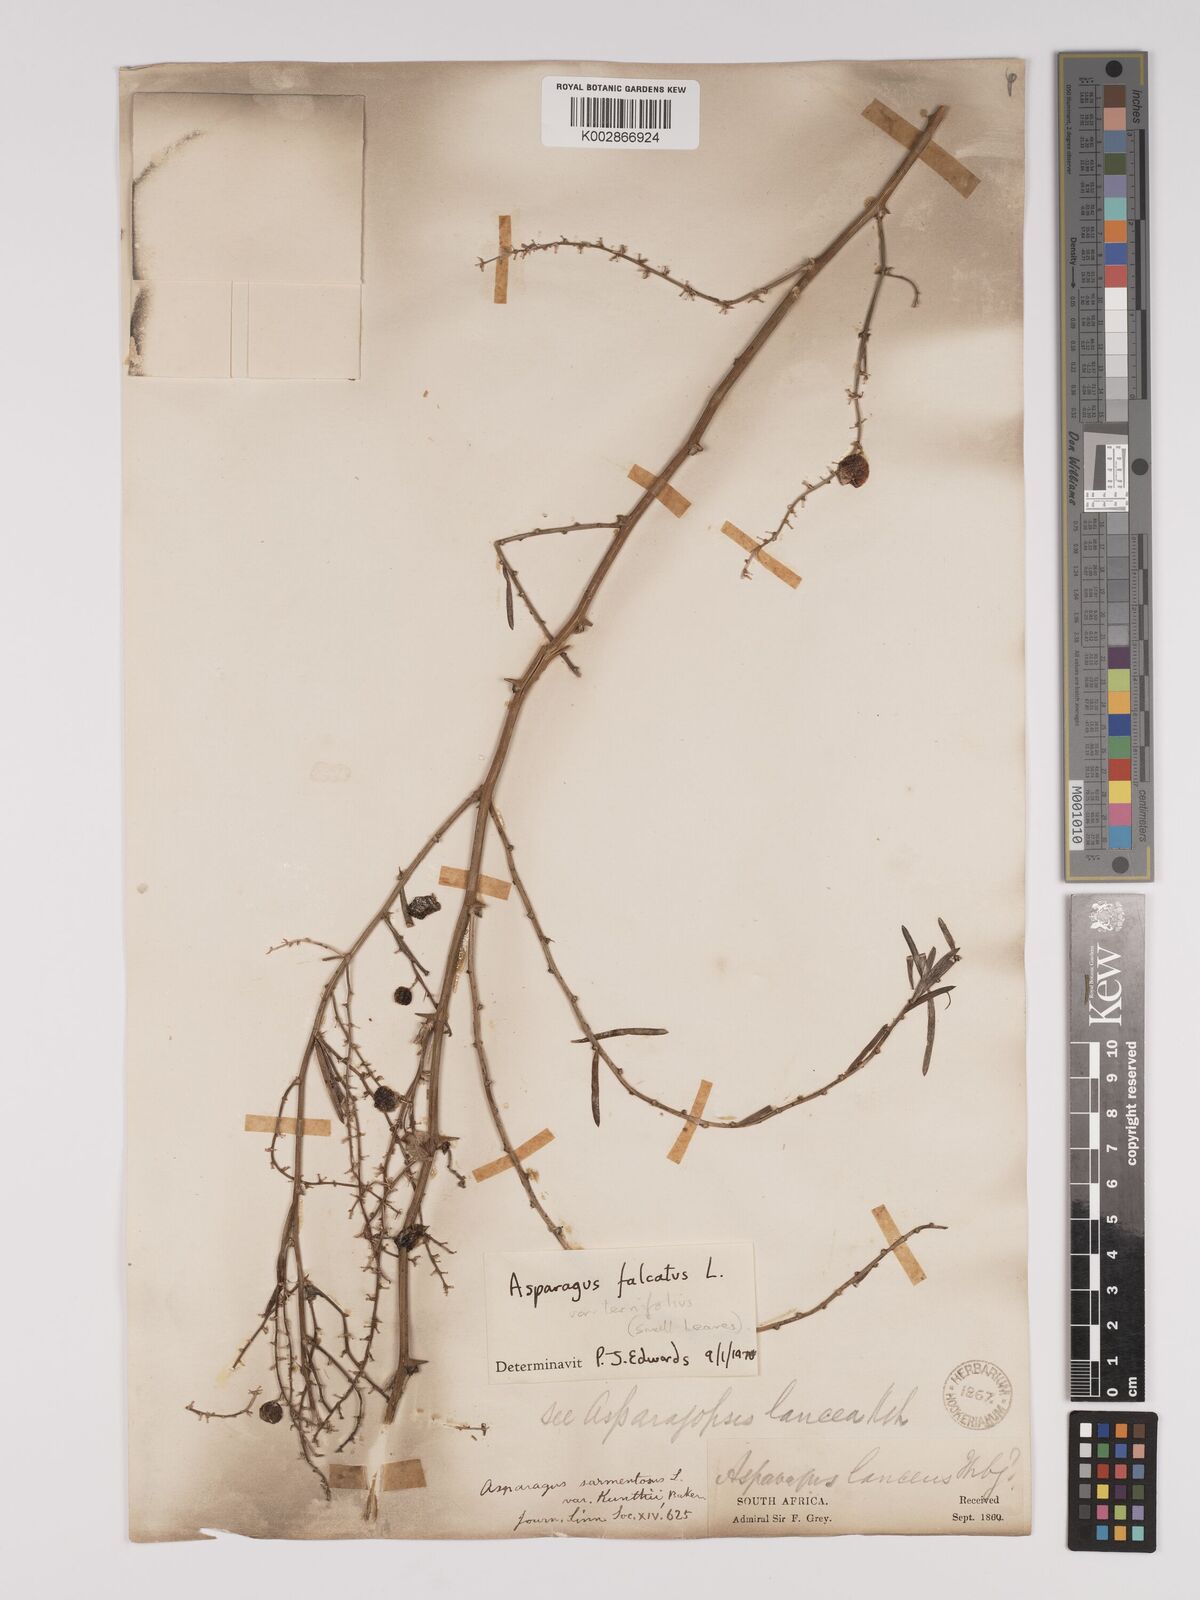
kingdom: Plantae
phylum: Tracheophyta
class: Liliopsida
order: Asparagales
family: Asparagaceae
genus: Asparagus
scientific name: Asparagus falcatus
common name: Asparagus
